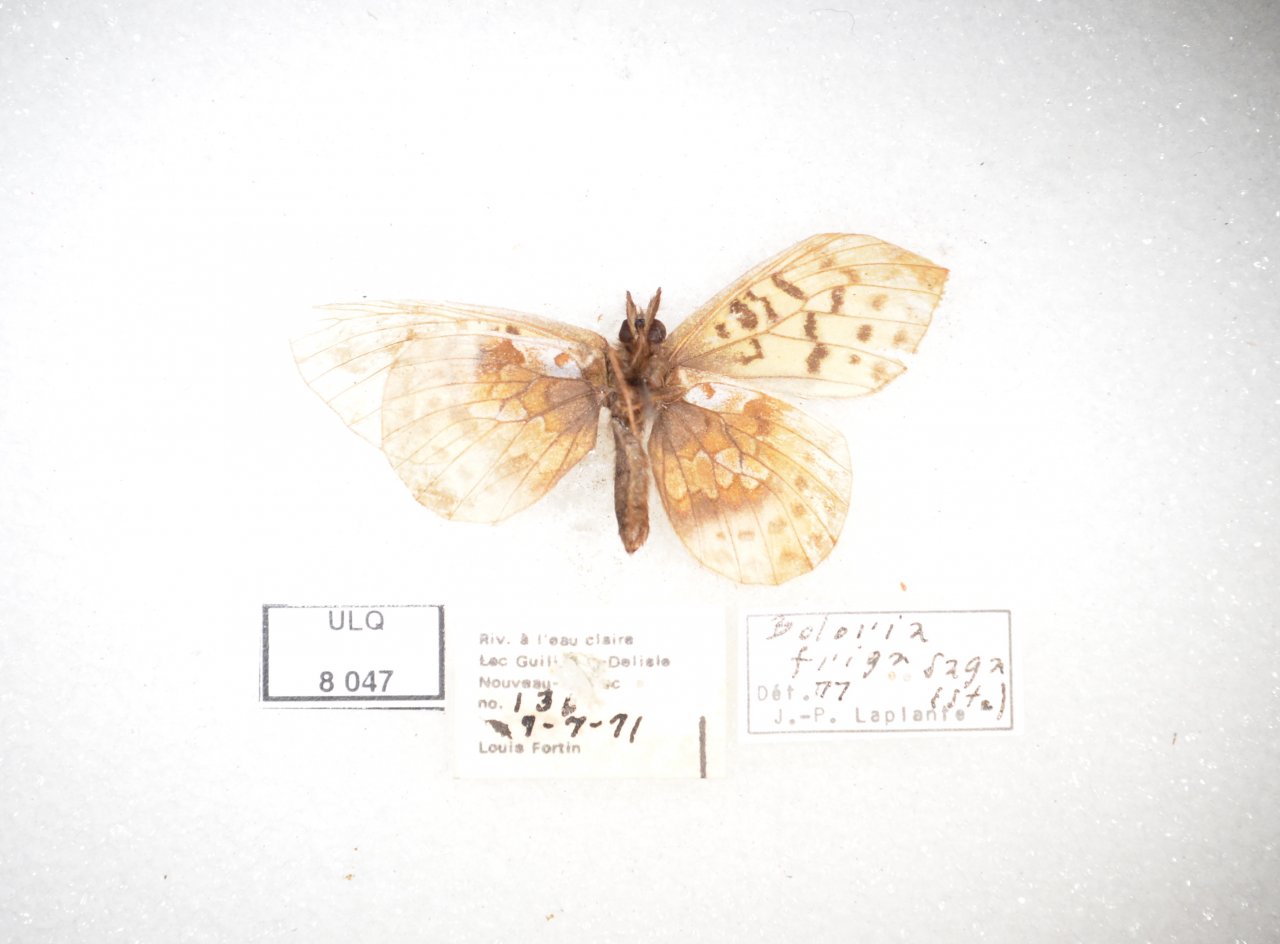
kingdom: Animalia
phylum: Arthropoda
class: Insecta
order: Lepidoptera
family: Nymphalidae
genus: Boloria
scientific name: Boloria frigga
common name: Frigga Fritillary
